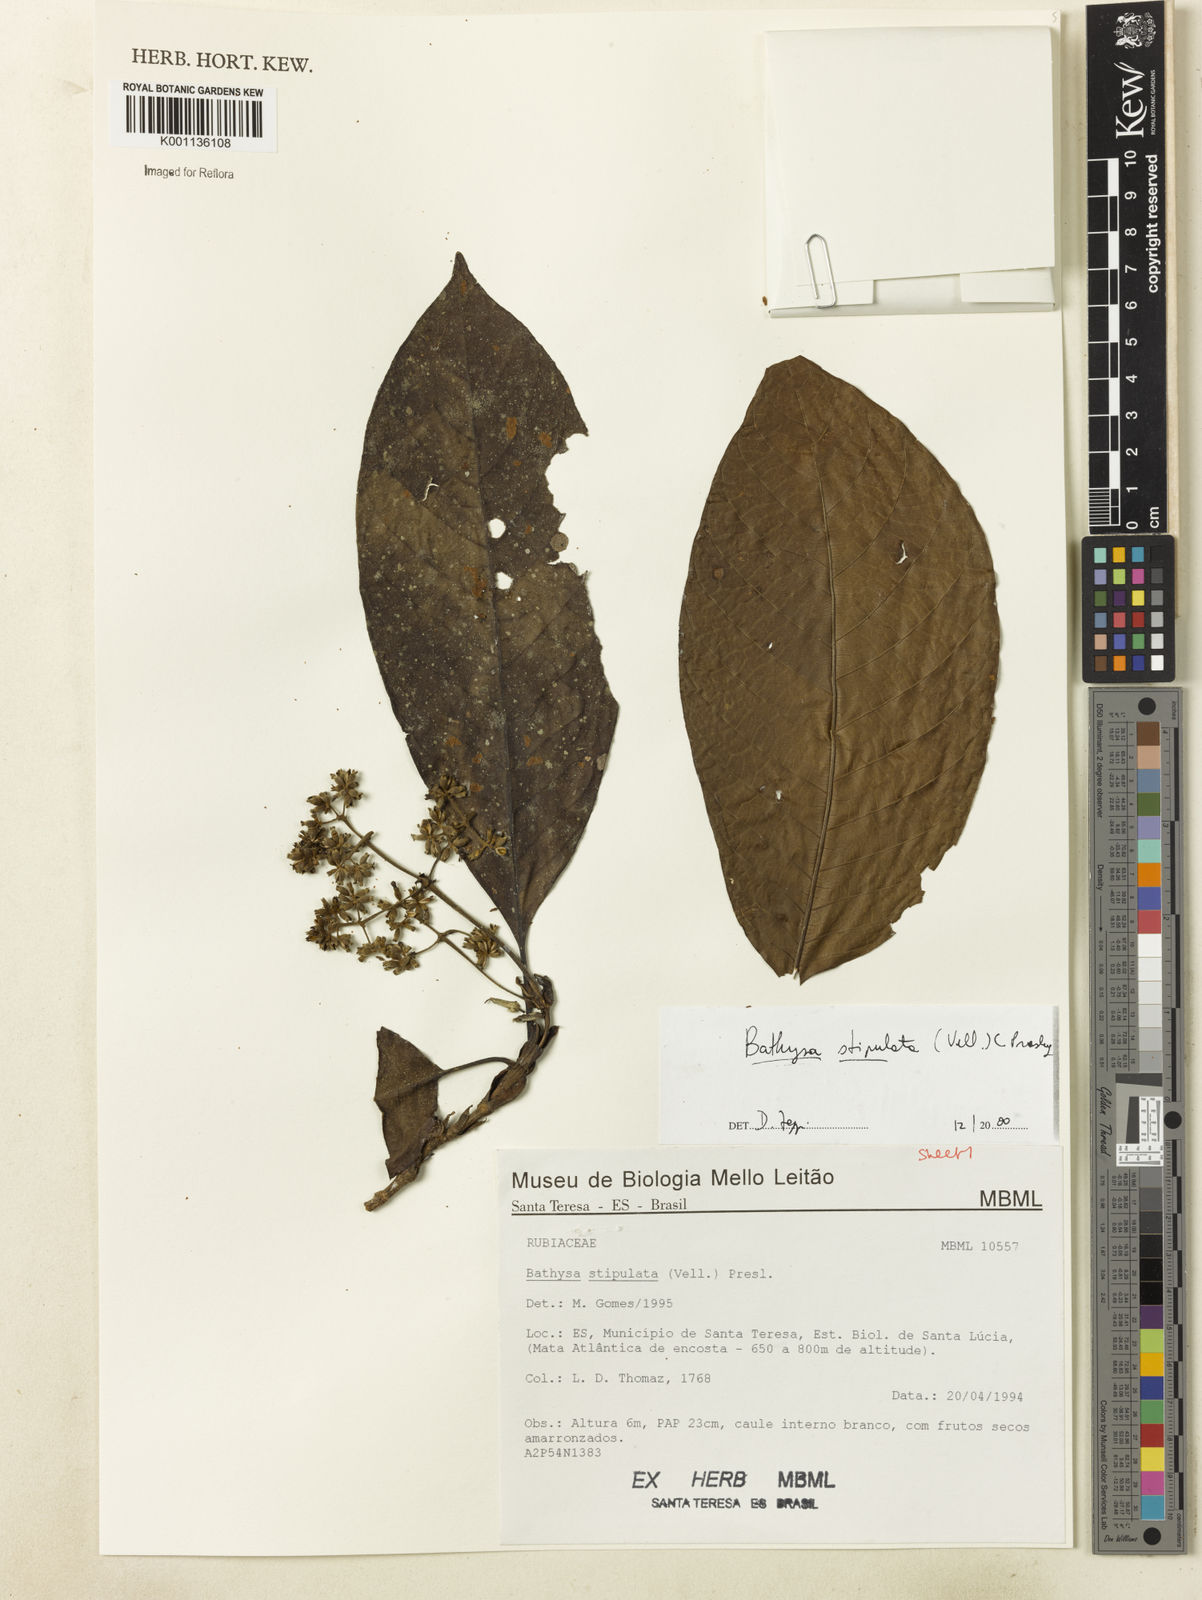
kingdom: Plantae
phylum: Tracheophyta
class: Magnoliopsida
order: Gentianales
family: Rubiaceae
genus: Bathysa
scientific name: Bathysa stipulata
